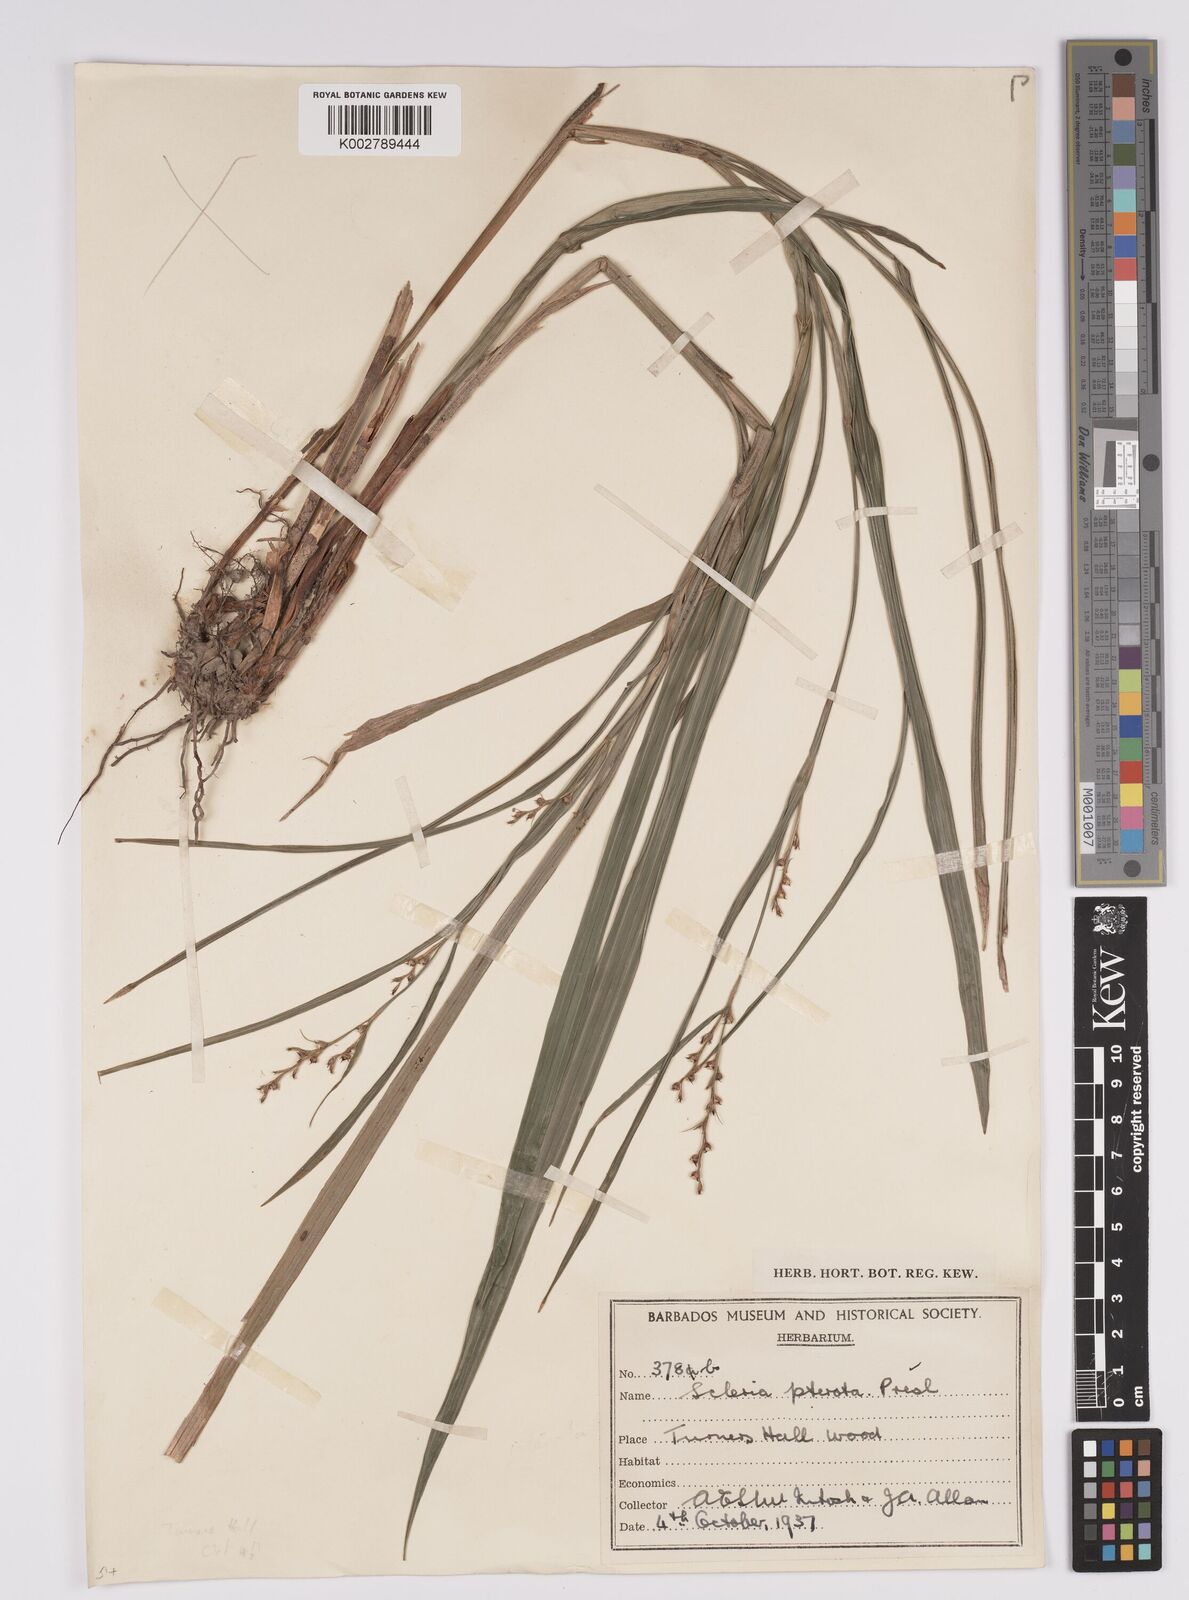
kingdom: Plantae
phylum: Tracheophyta
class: Liliopsida
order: Poales
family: Cyperaceae
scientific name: Cyperaceae
